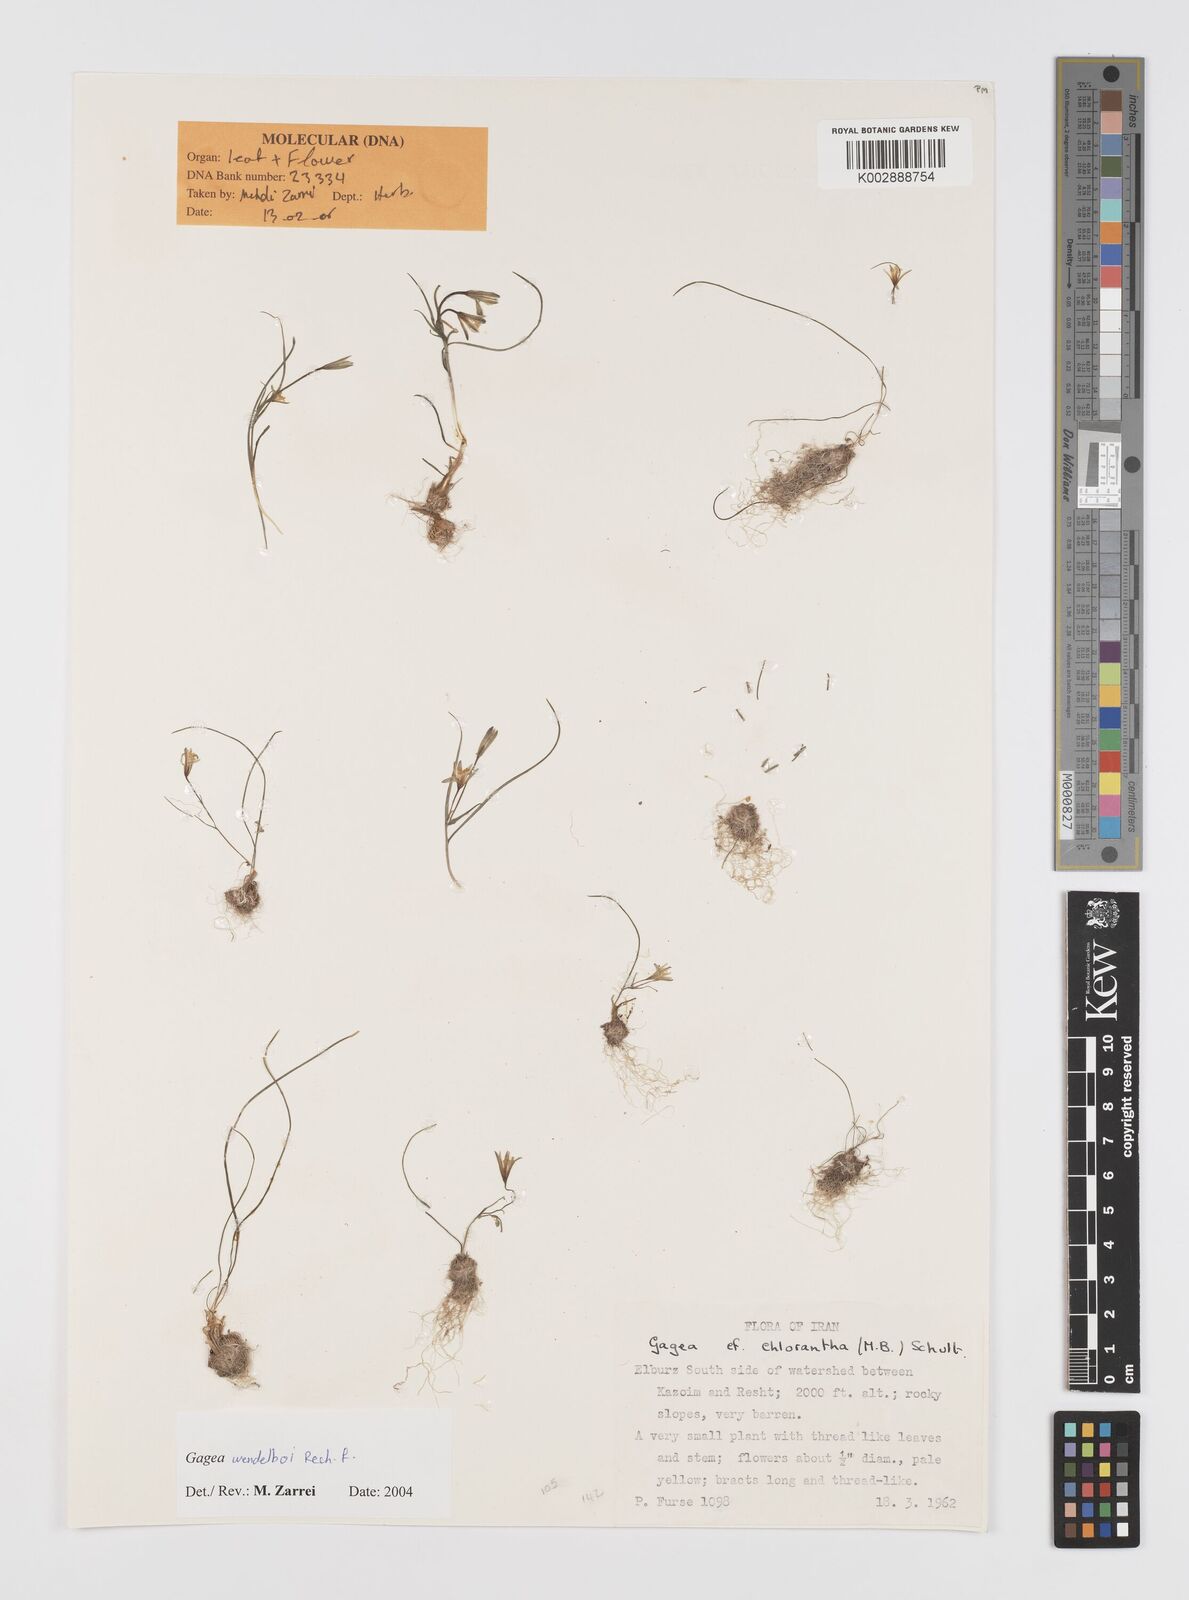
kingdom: Plantae
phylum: Tracheophyta
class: Liliopsida
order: Liliales
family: Liliaceae
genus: Gagea
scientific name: Gagea wendelboi
